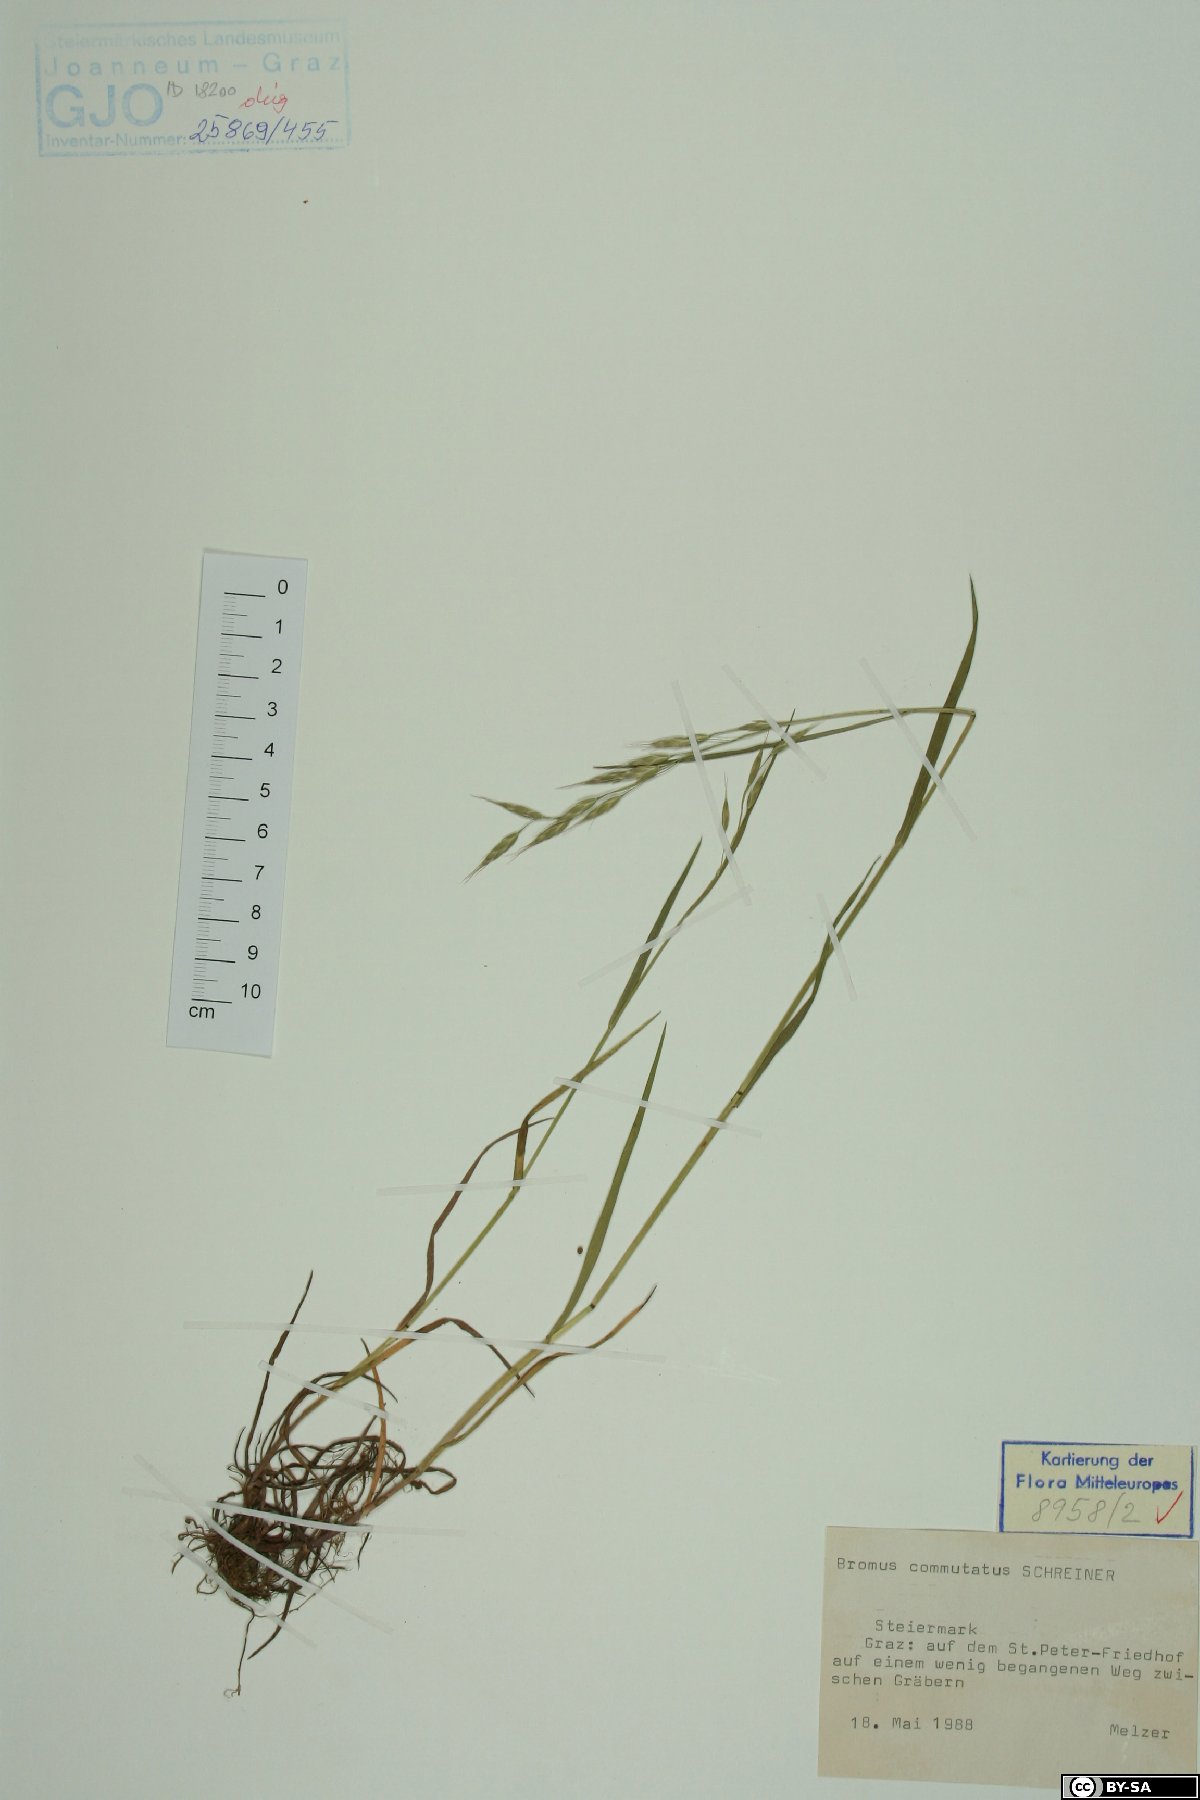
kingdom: Plantae
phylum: Tracheophyta
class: Liliopsida
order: Poales
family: Poaceae
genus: Bromus
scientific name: Bromus commutatus
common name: Meadow brome
